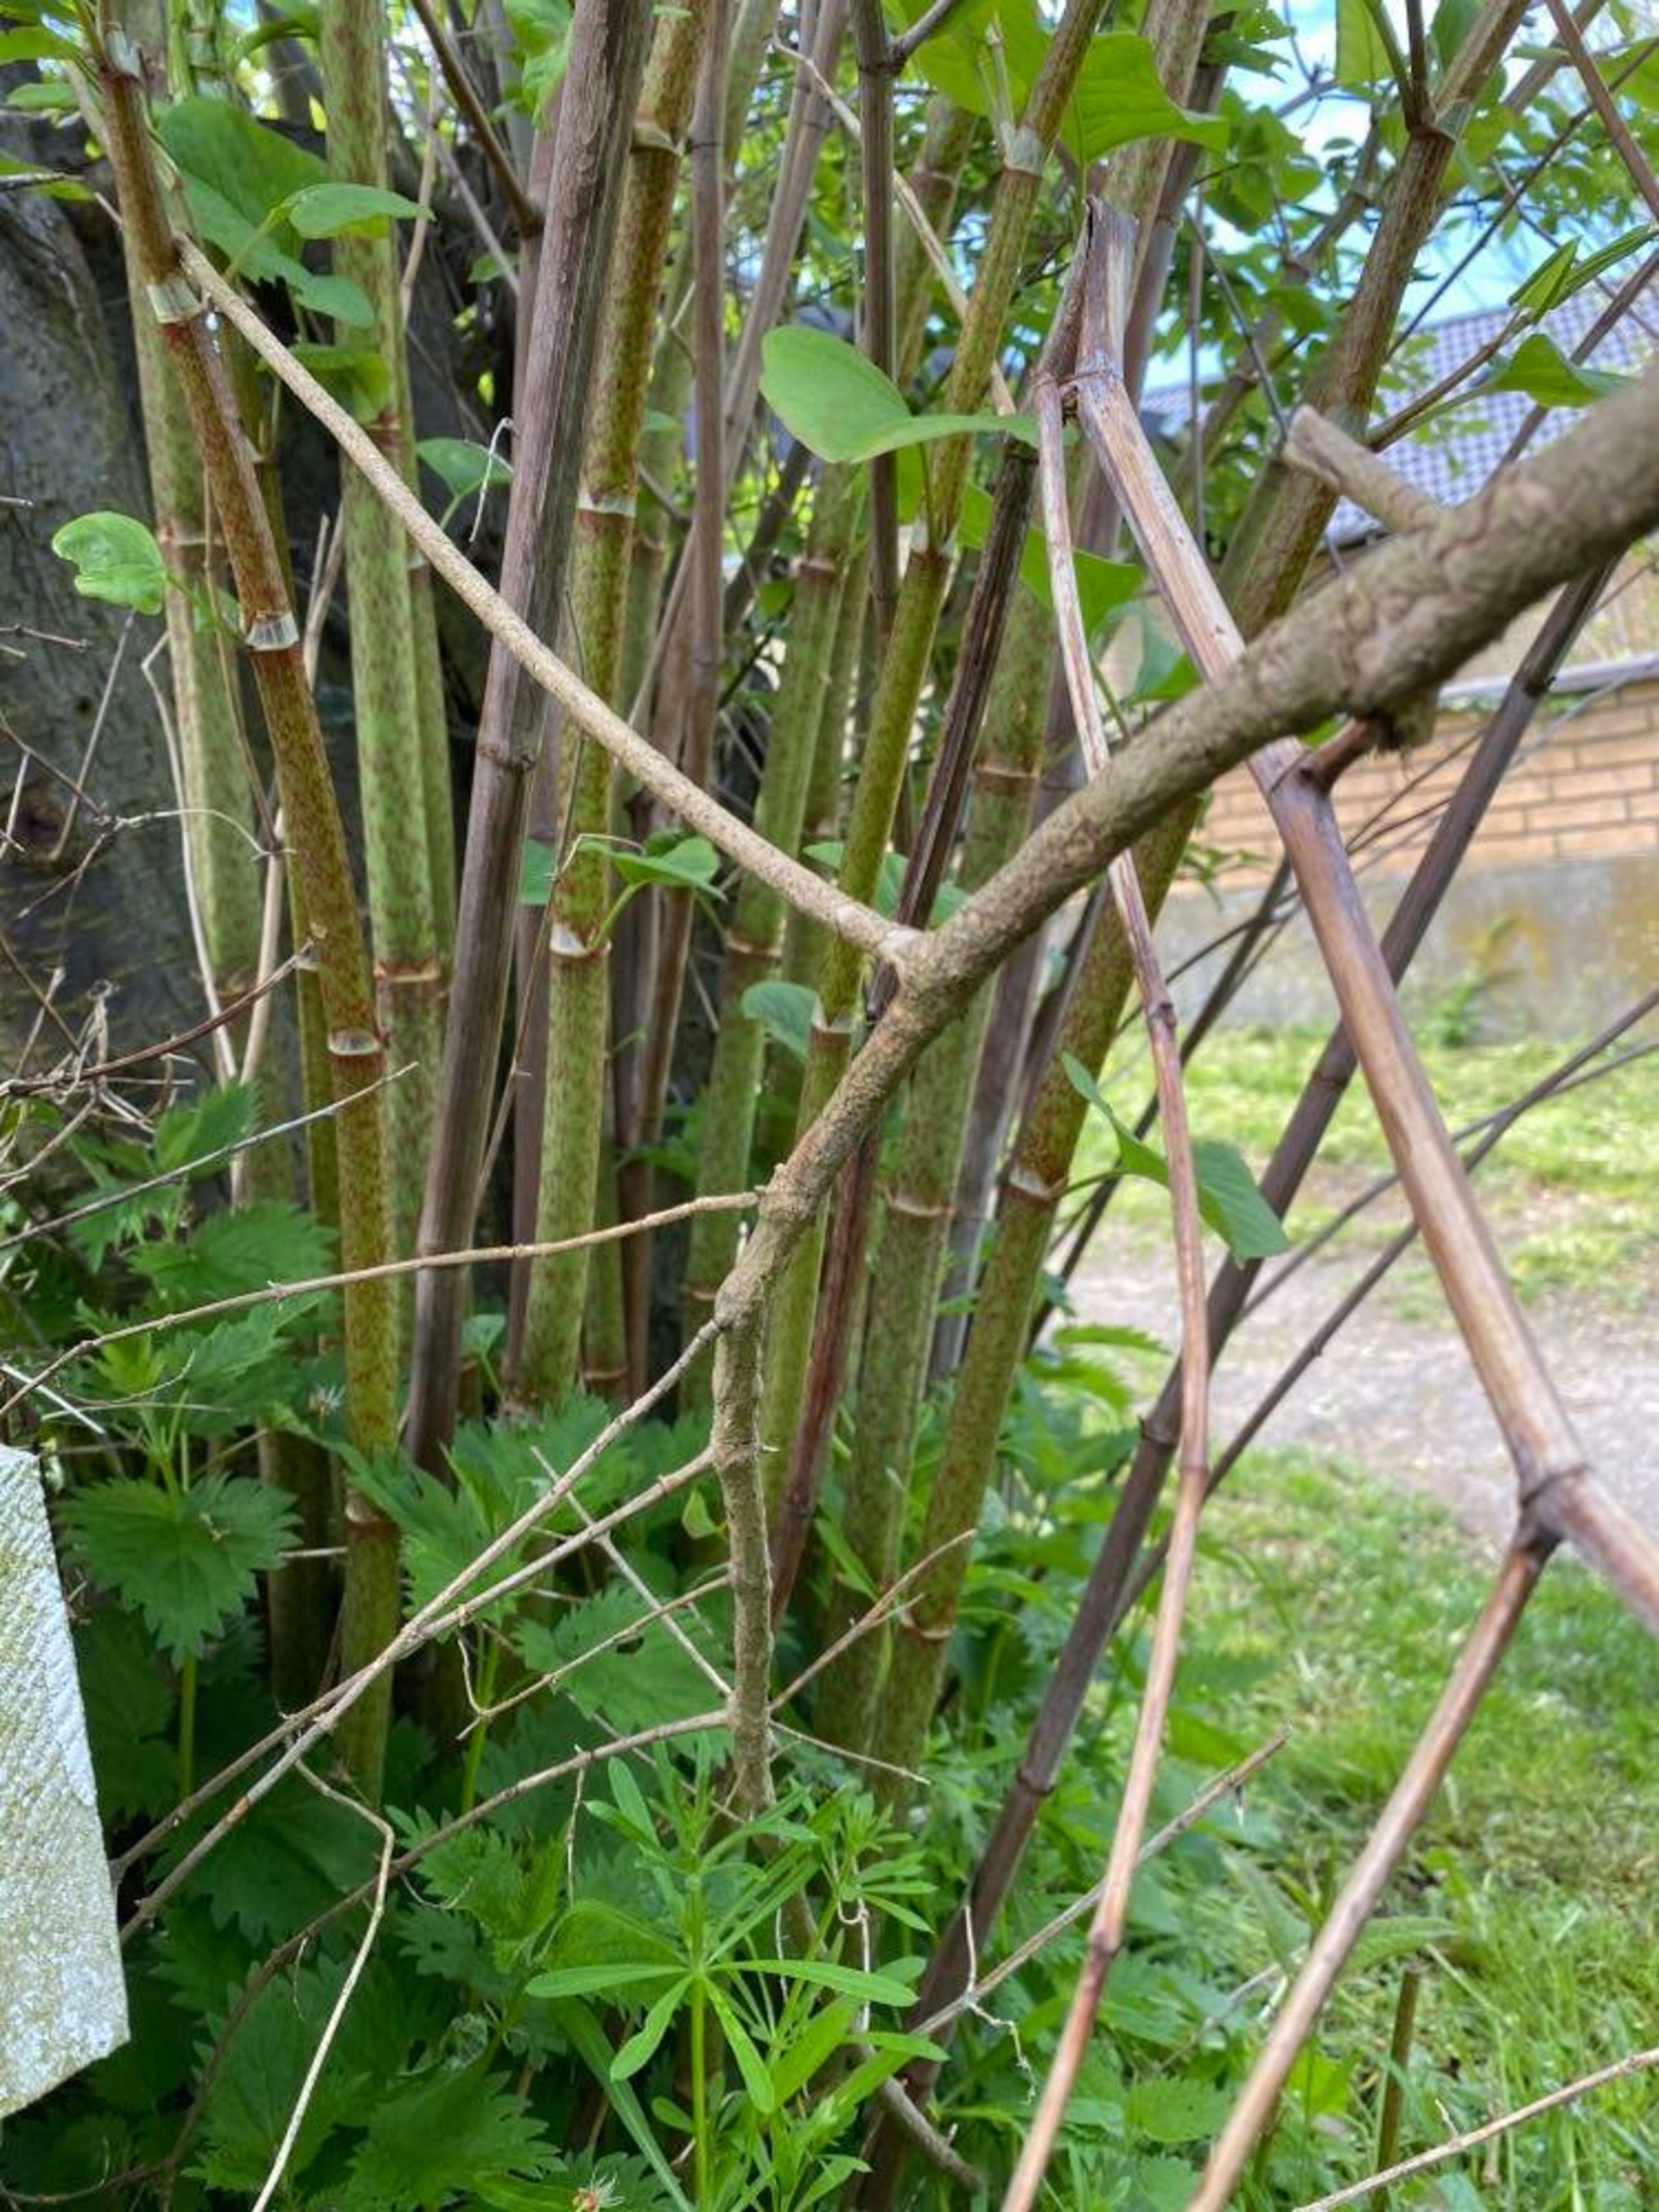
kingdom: Plantae
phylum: Tracheophyta
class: Magnoliopsida
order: Caryophyllales
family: Polygonaceae
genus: Reynoutria
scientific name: Reynoutria japonica
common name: Japan-pileurt
